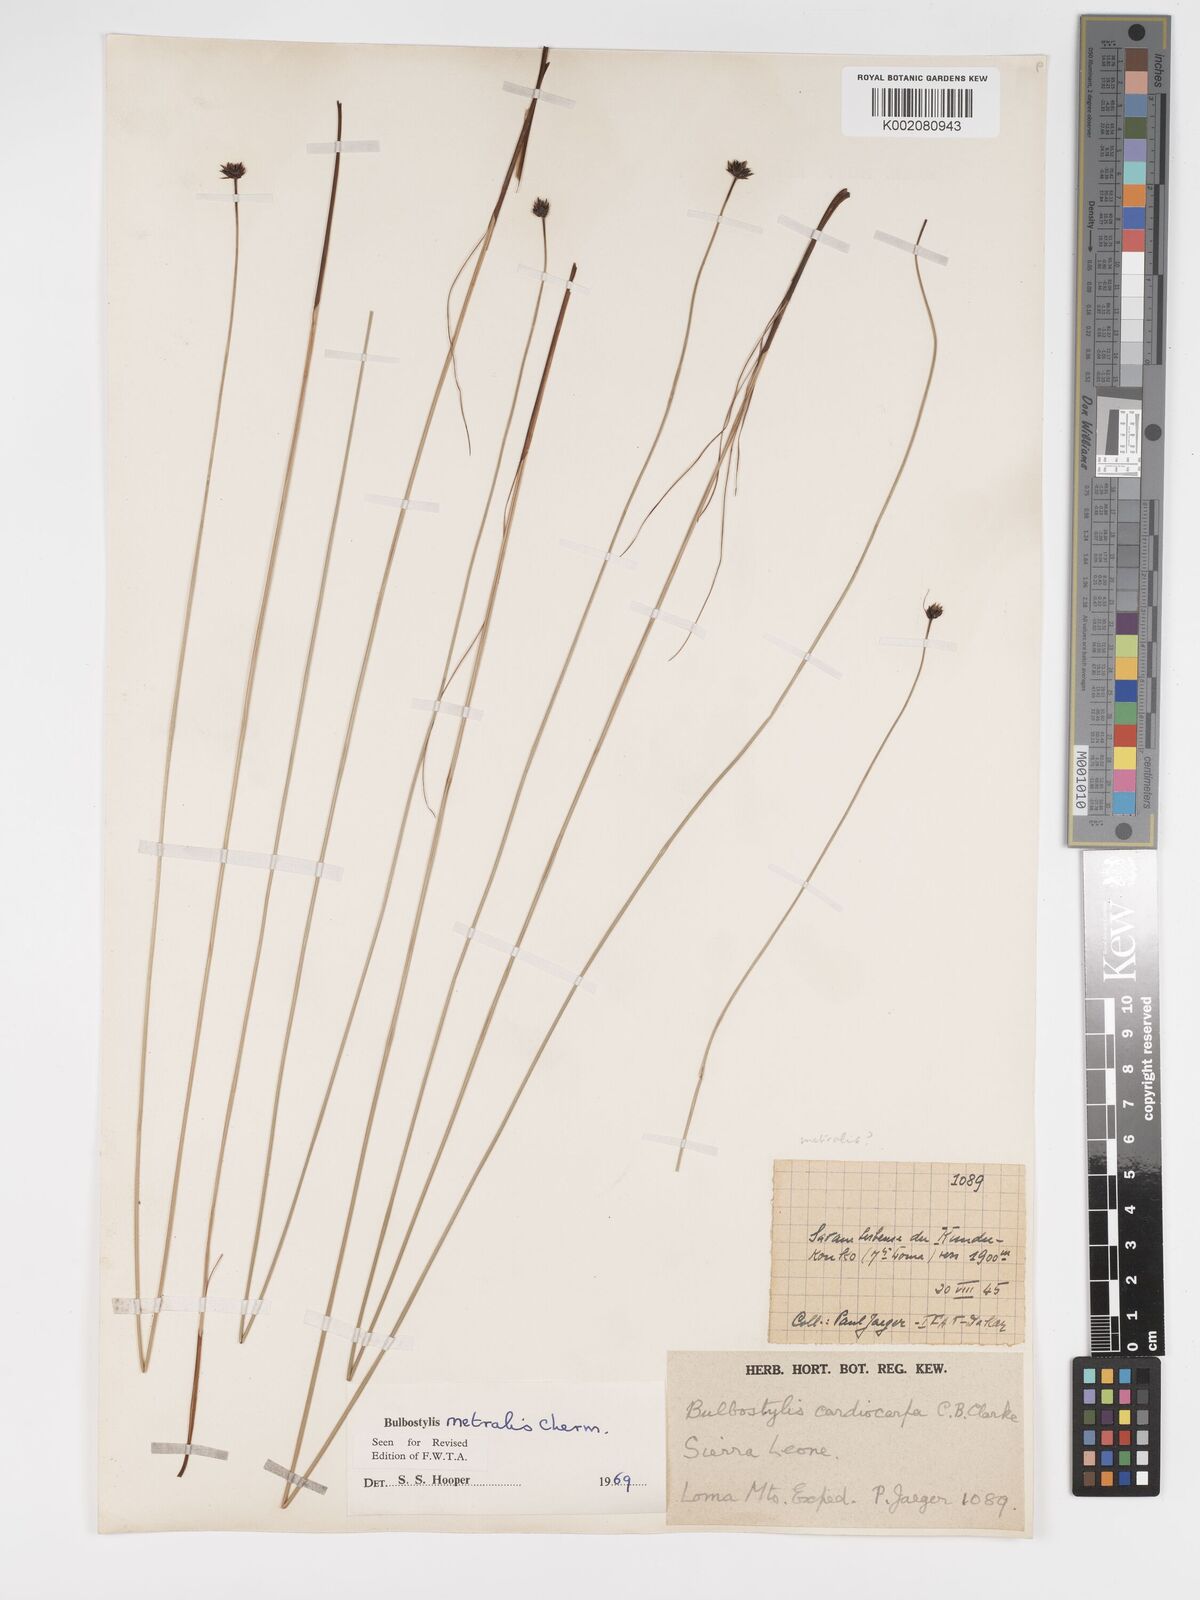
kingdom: Plantae
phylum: Tracheophyta
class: Liliopsida
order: Poales
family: Cyperaceae
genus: Bulbostylis
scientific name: Bulbostylis filamentosa
